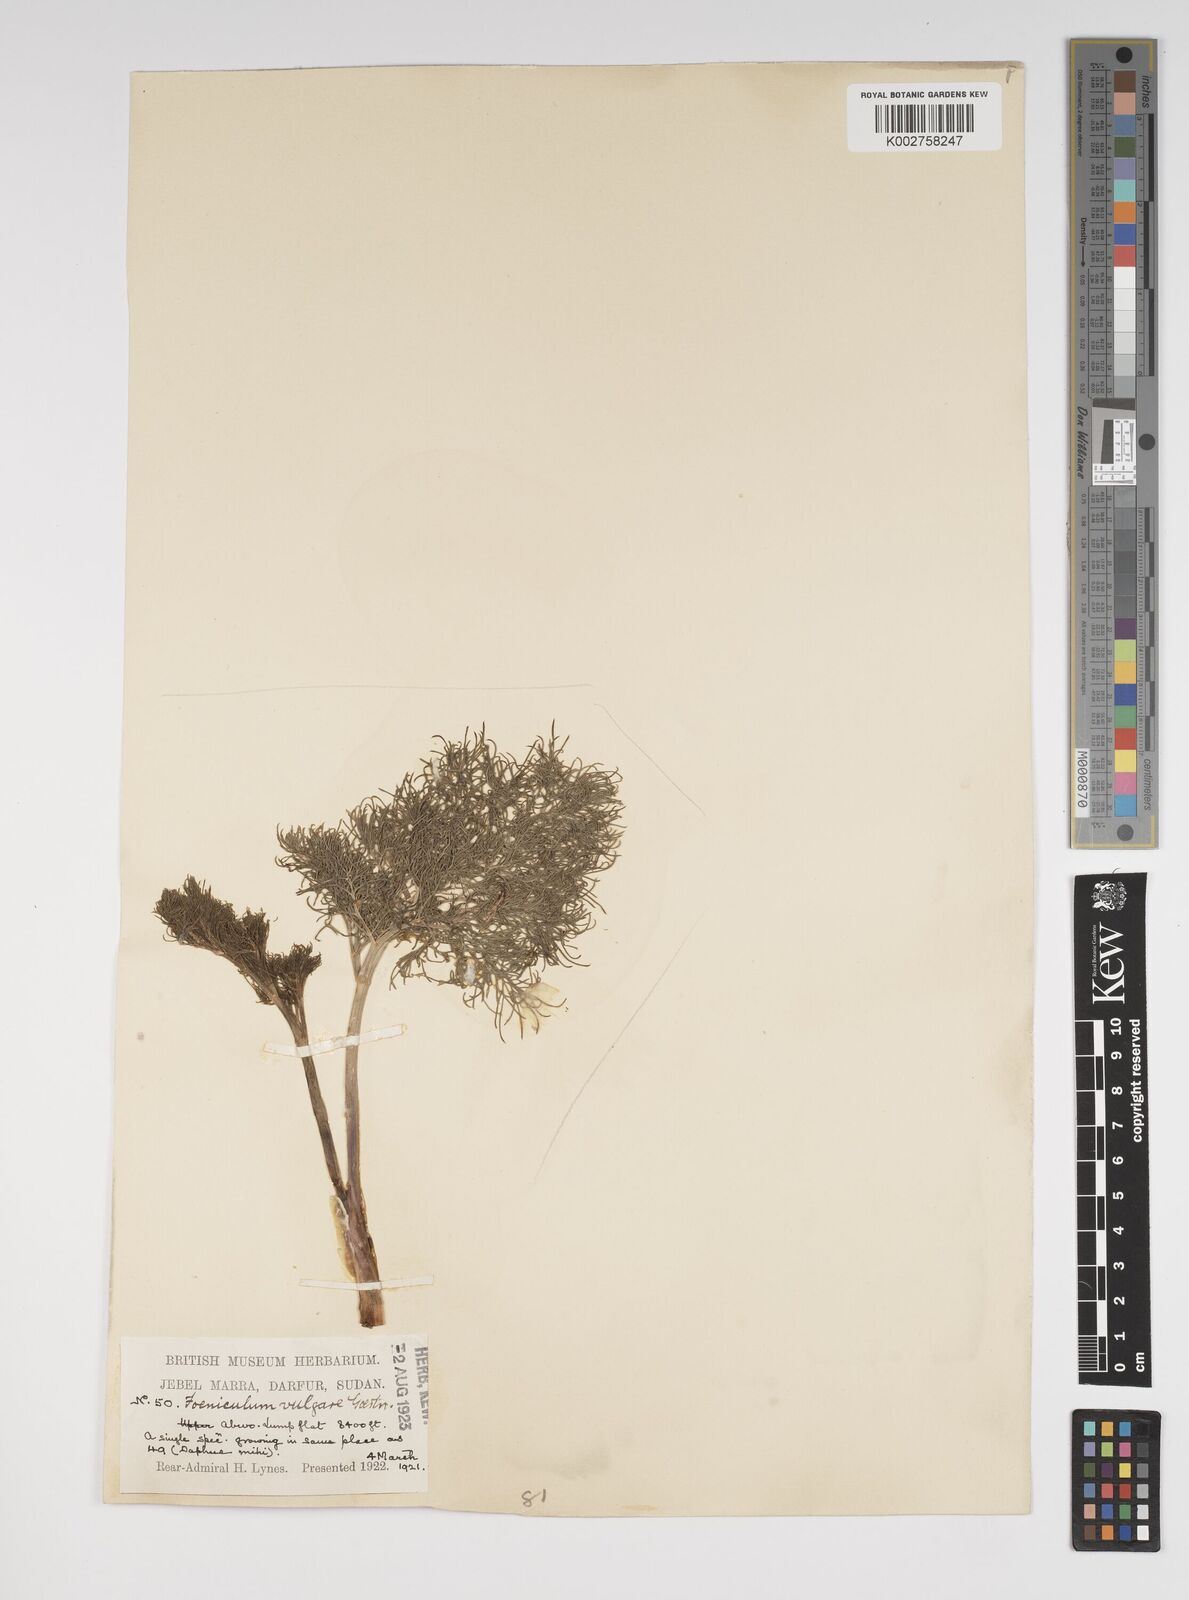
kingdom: Plantae
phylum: Tracheophyta
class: Magnoliopsida
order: Apiales
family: Apiaceae
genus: Foeniculum
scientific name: Foeniculum vulgare
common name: Fennel
